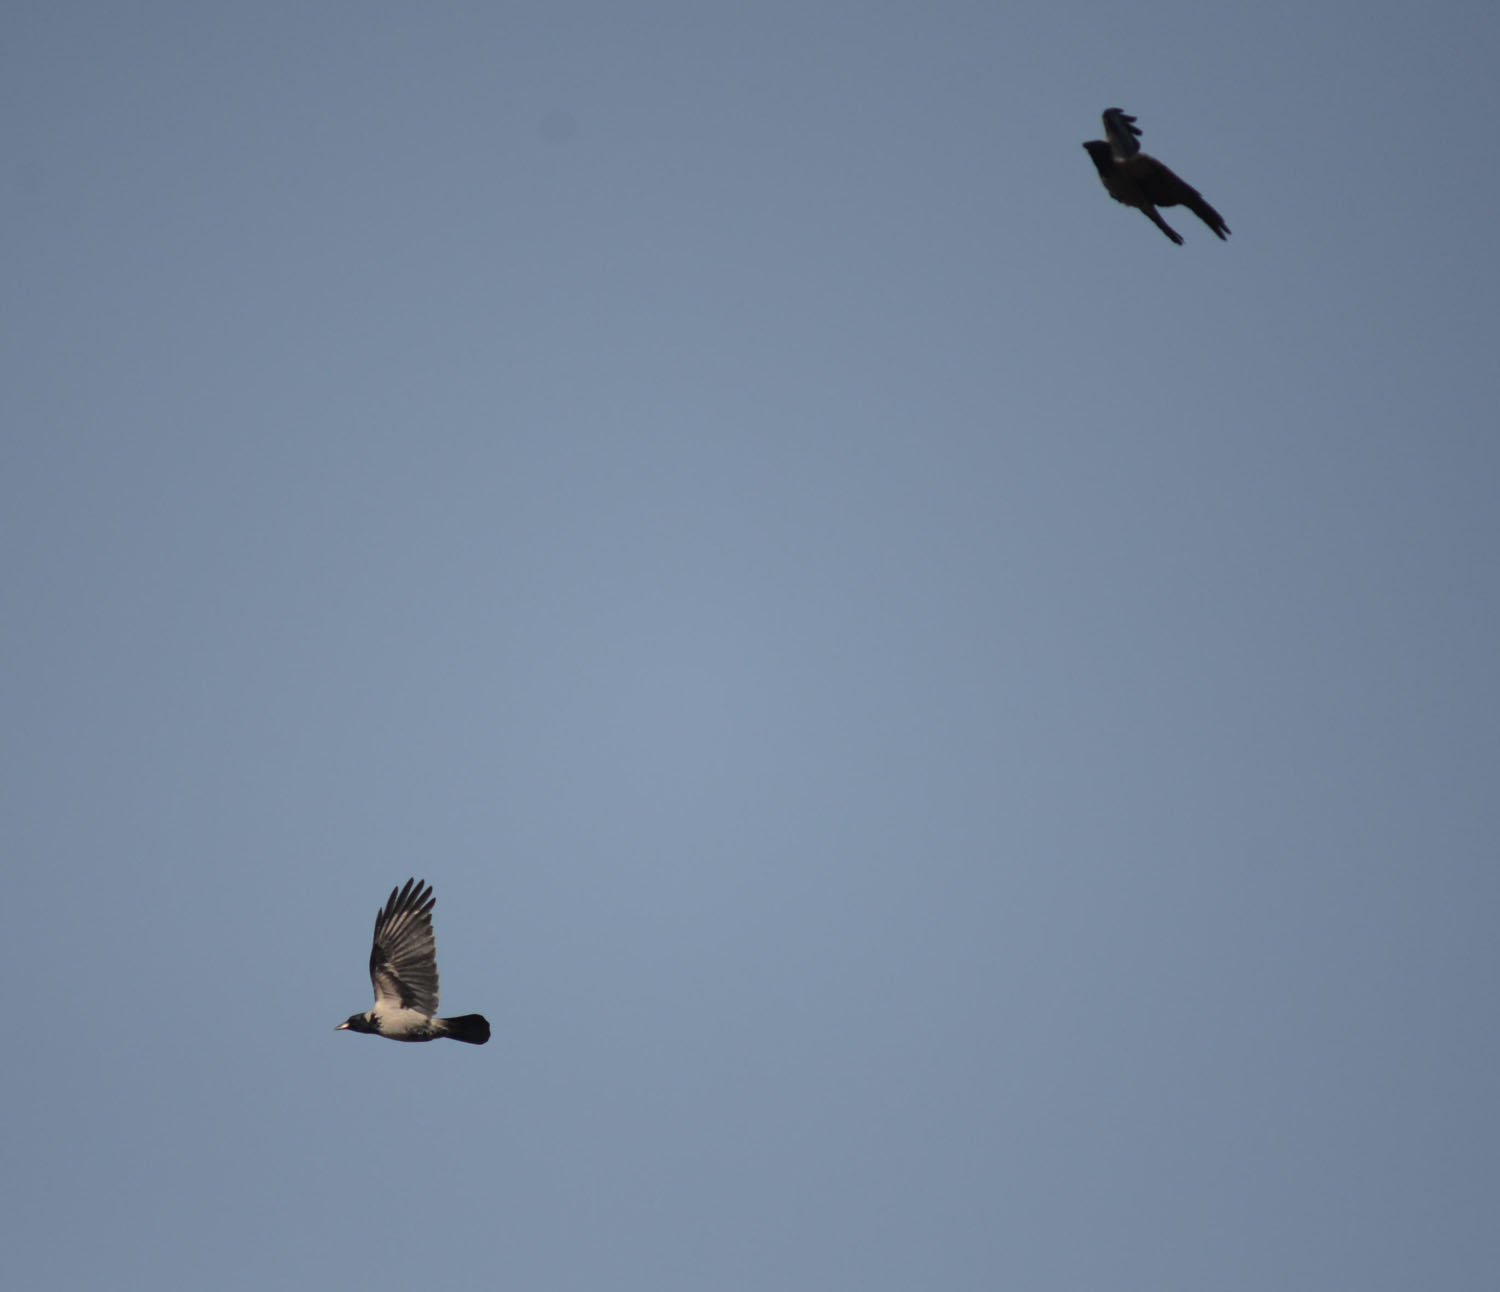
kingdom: Animalia
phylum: Chordata
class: Aves
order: Passeriformes
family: Corvidae
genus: Corvus
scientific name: Corvus cornix
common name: Hooded crow
